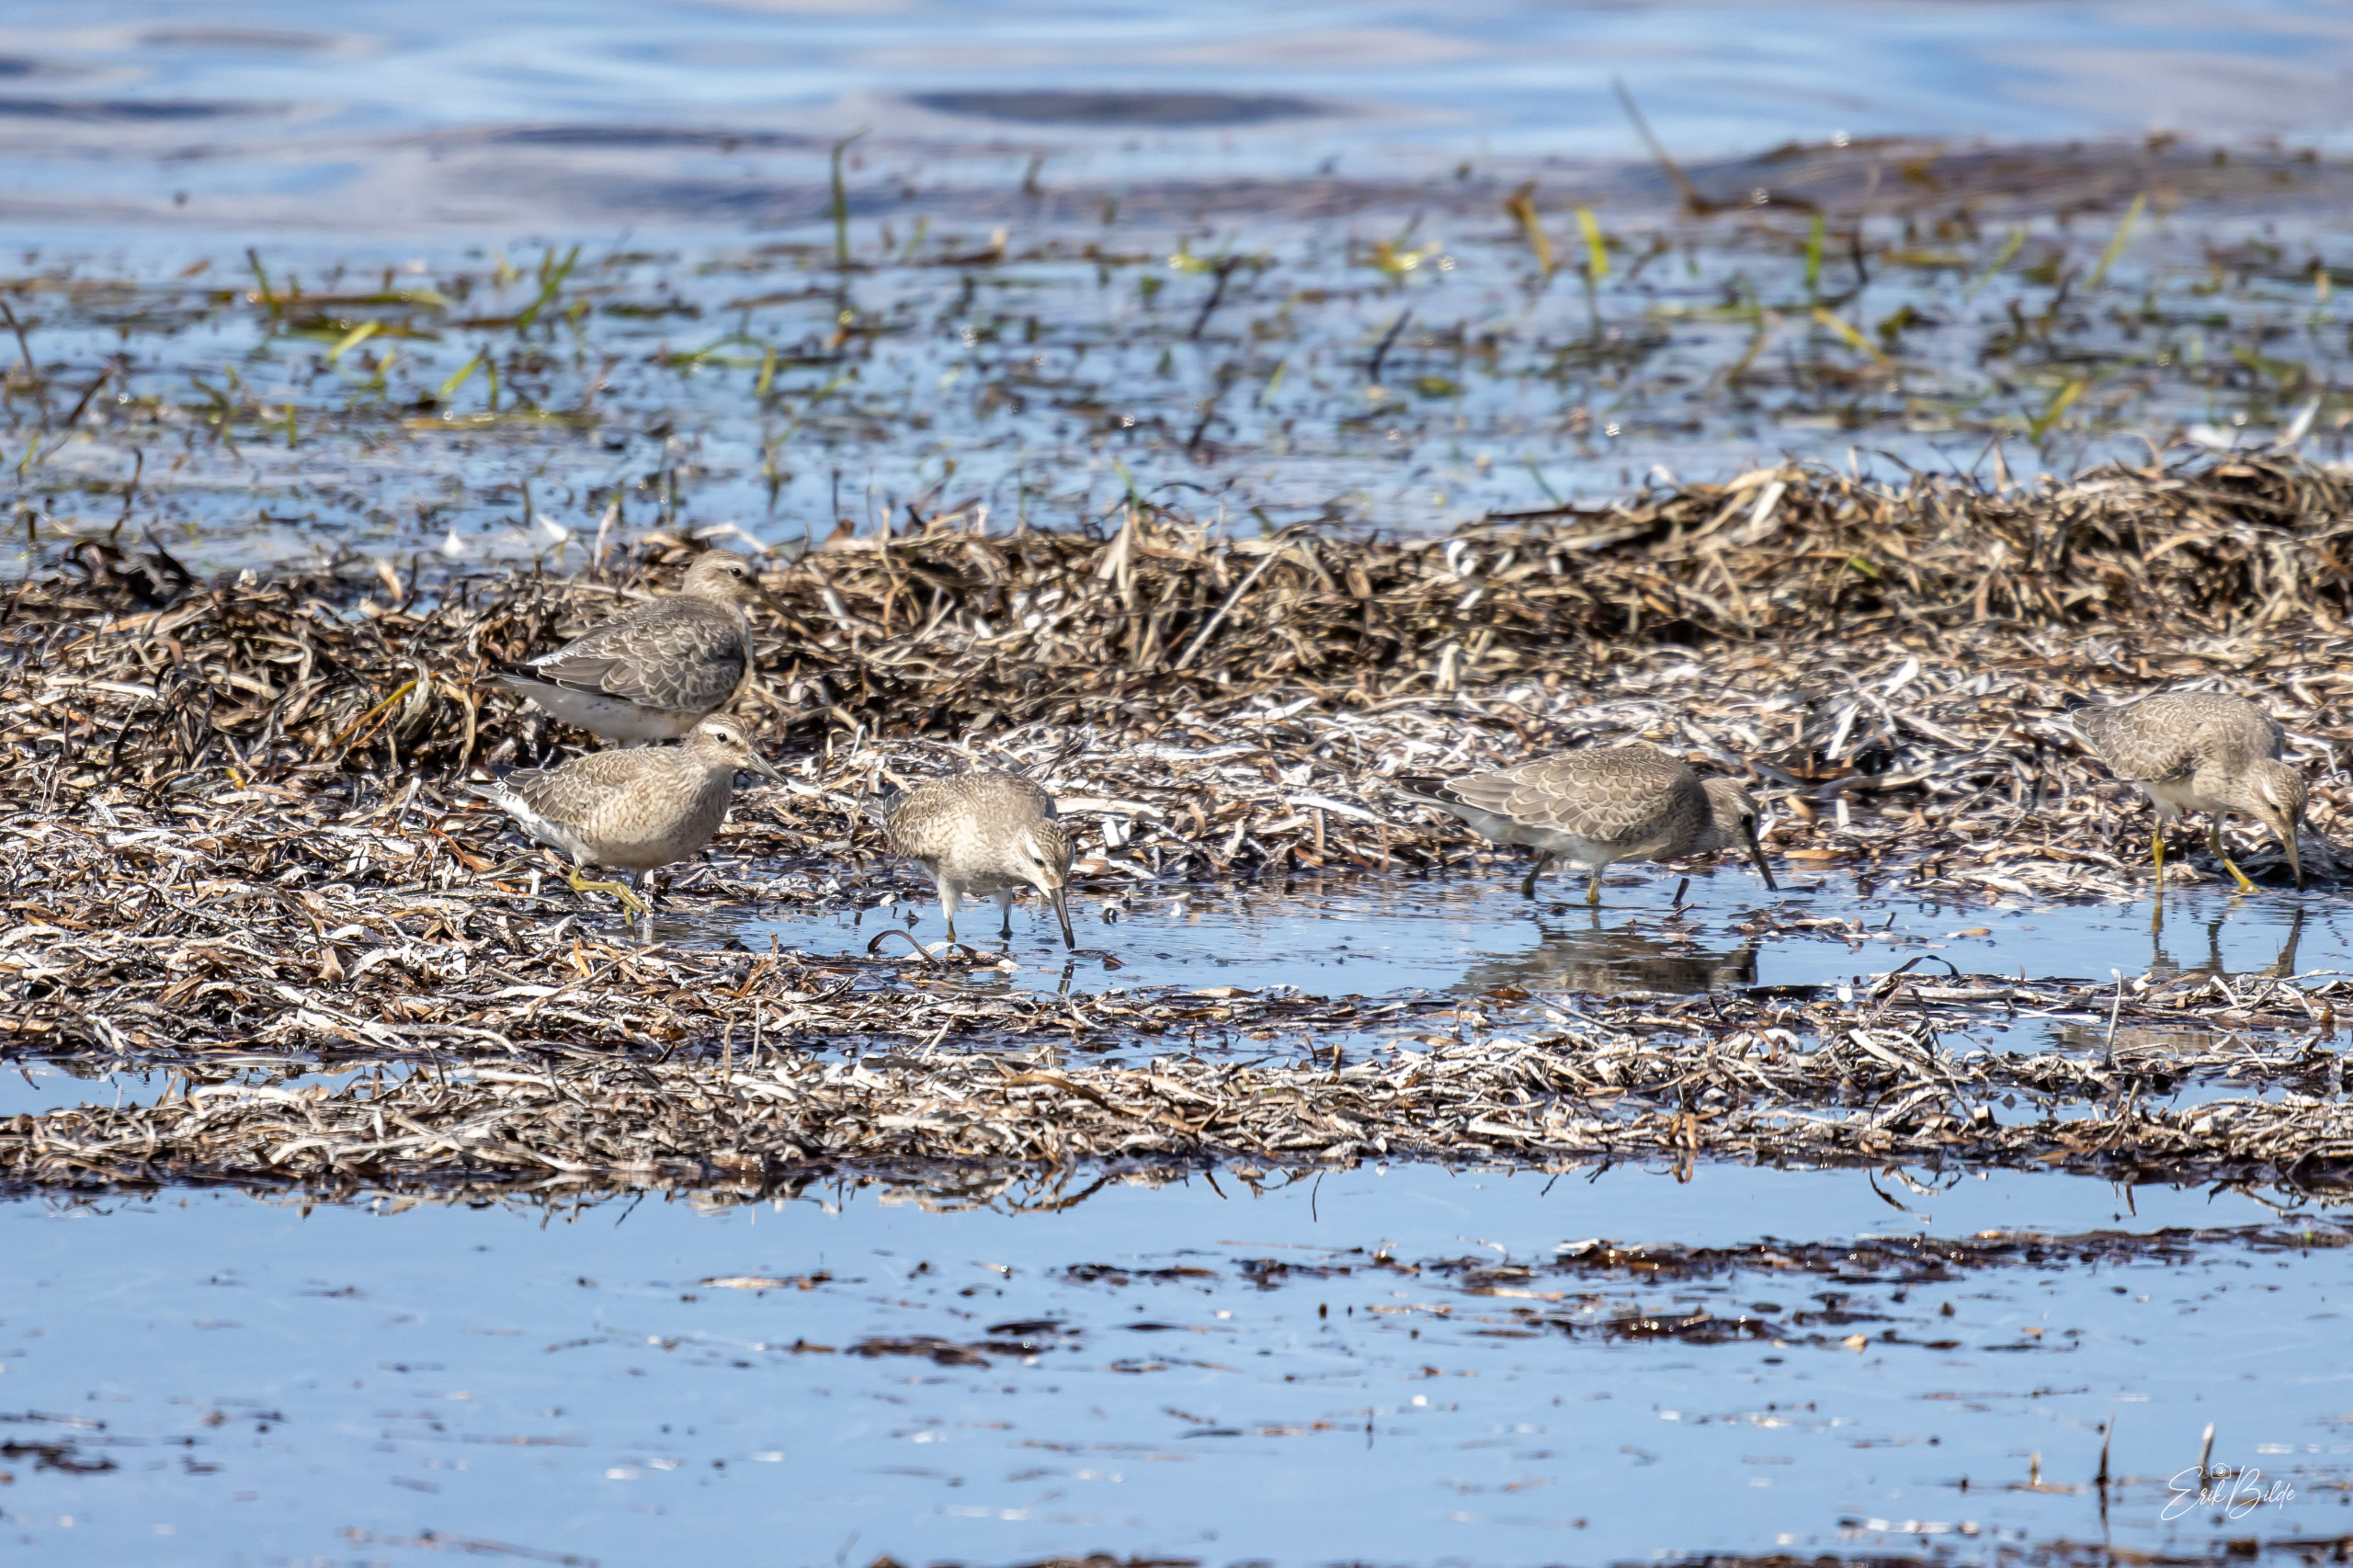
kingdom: Animalia
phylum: Chordata
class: Aves
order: Charadriiformes
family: Scolopacidae
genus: Calidris
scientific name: Calidris canutus
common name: Islandsk ryle
